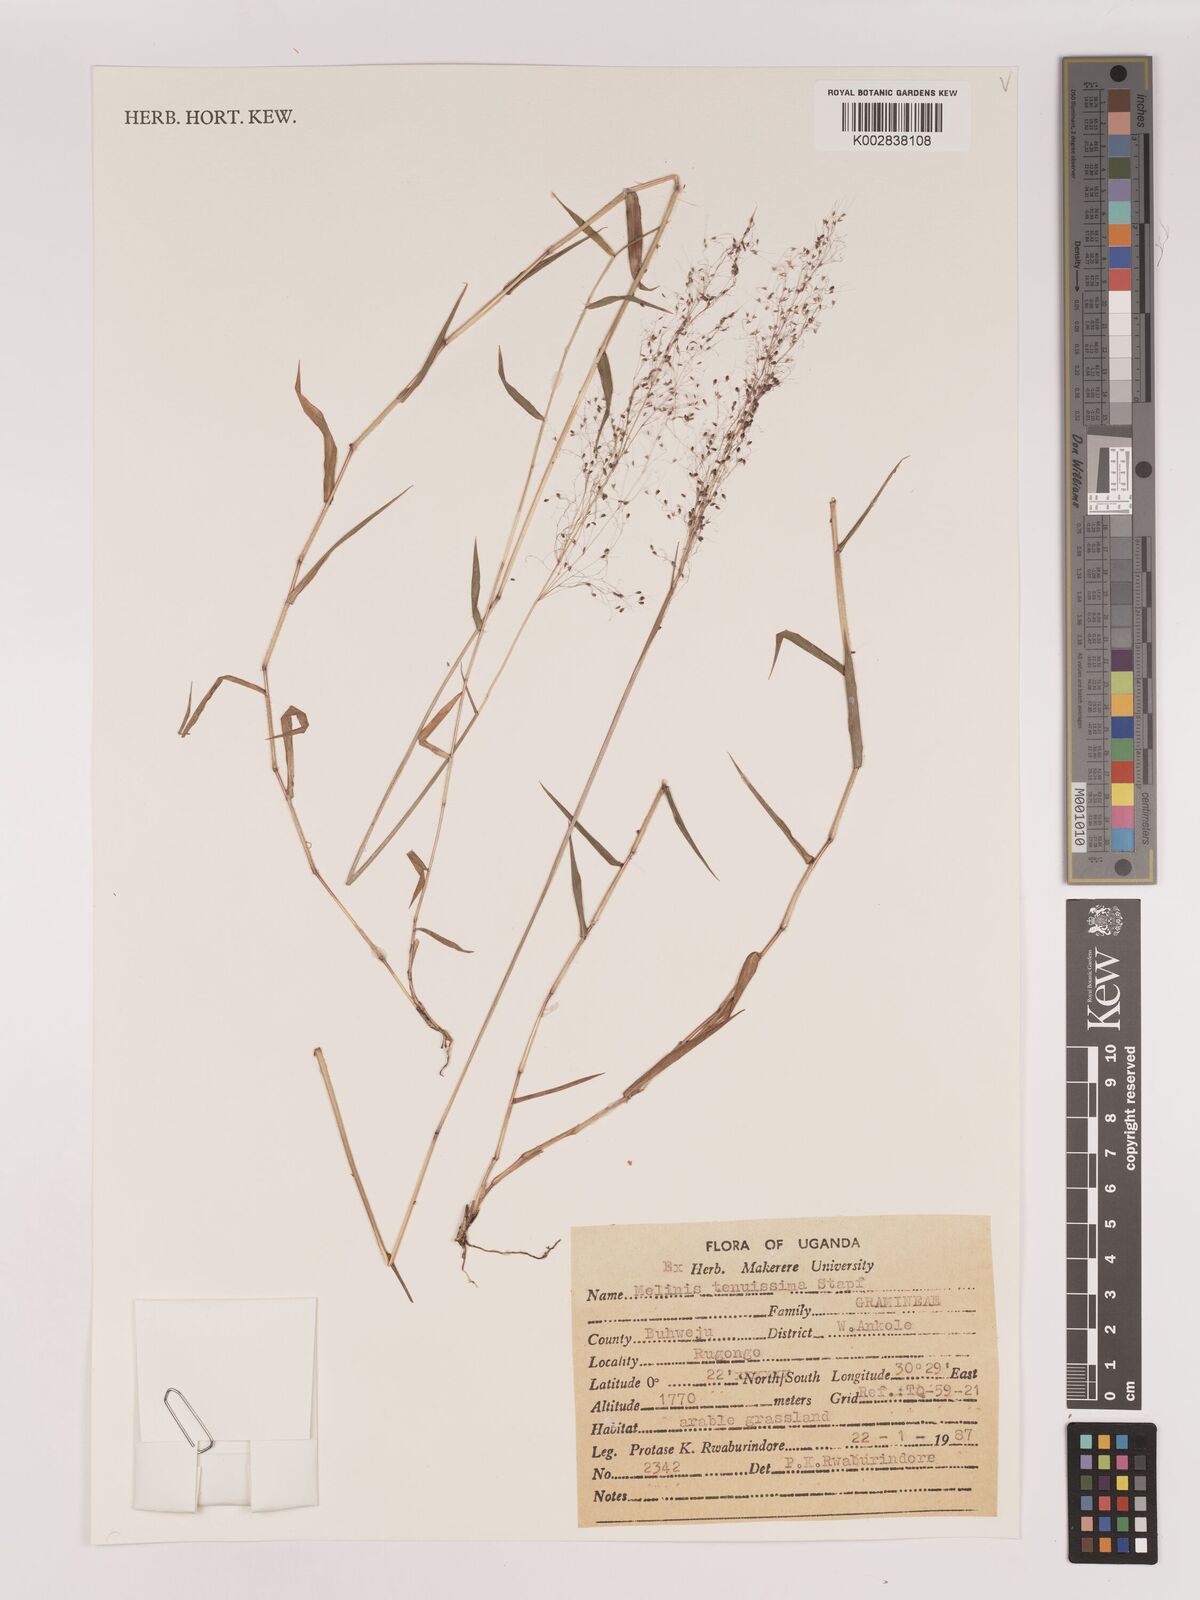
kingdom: Plantae
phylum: Tracheophyta
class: Liliopsida
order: Poales
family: Poaceae
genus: Melinis
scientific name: Melinis tenuissima
